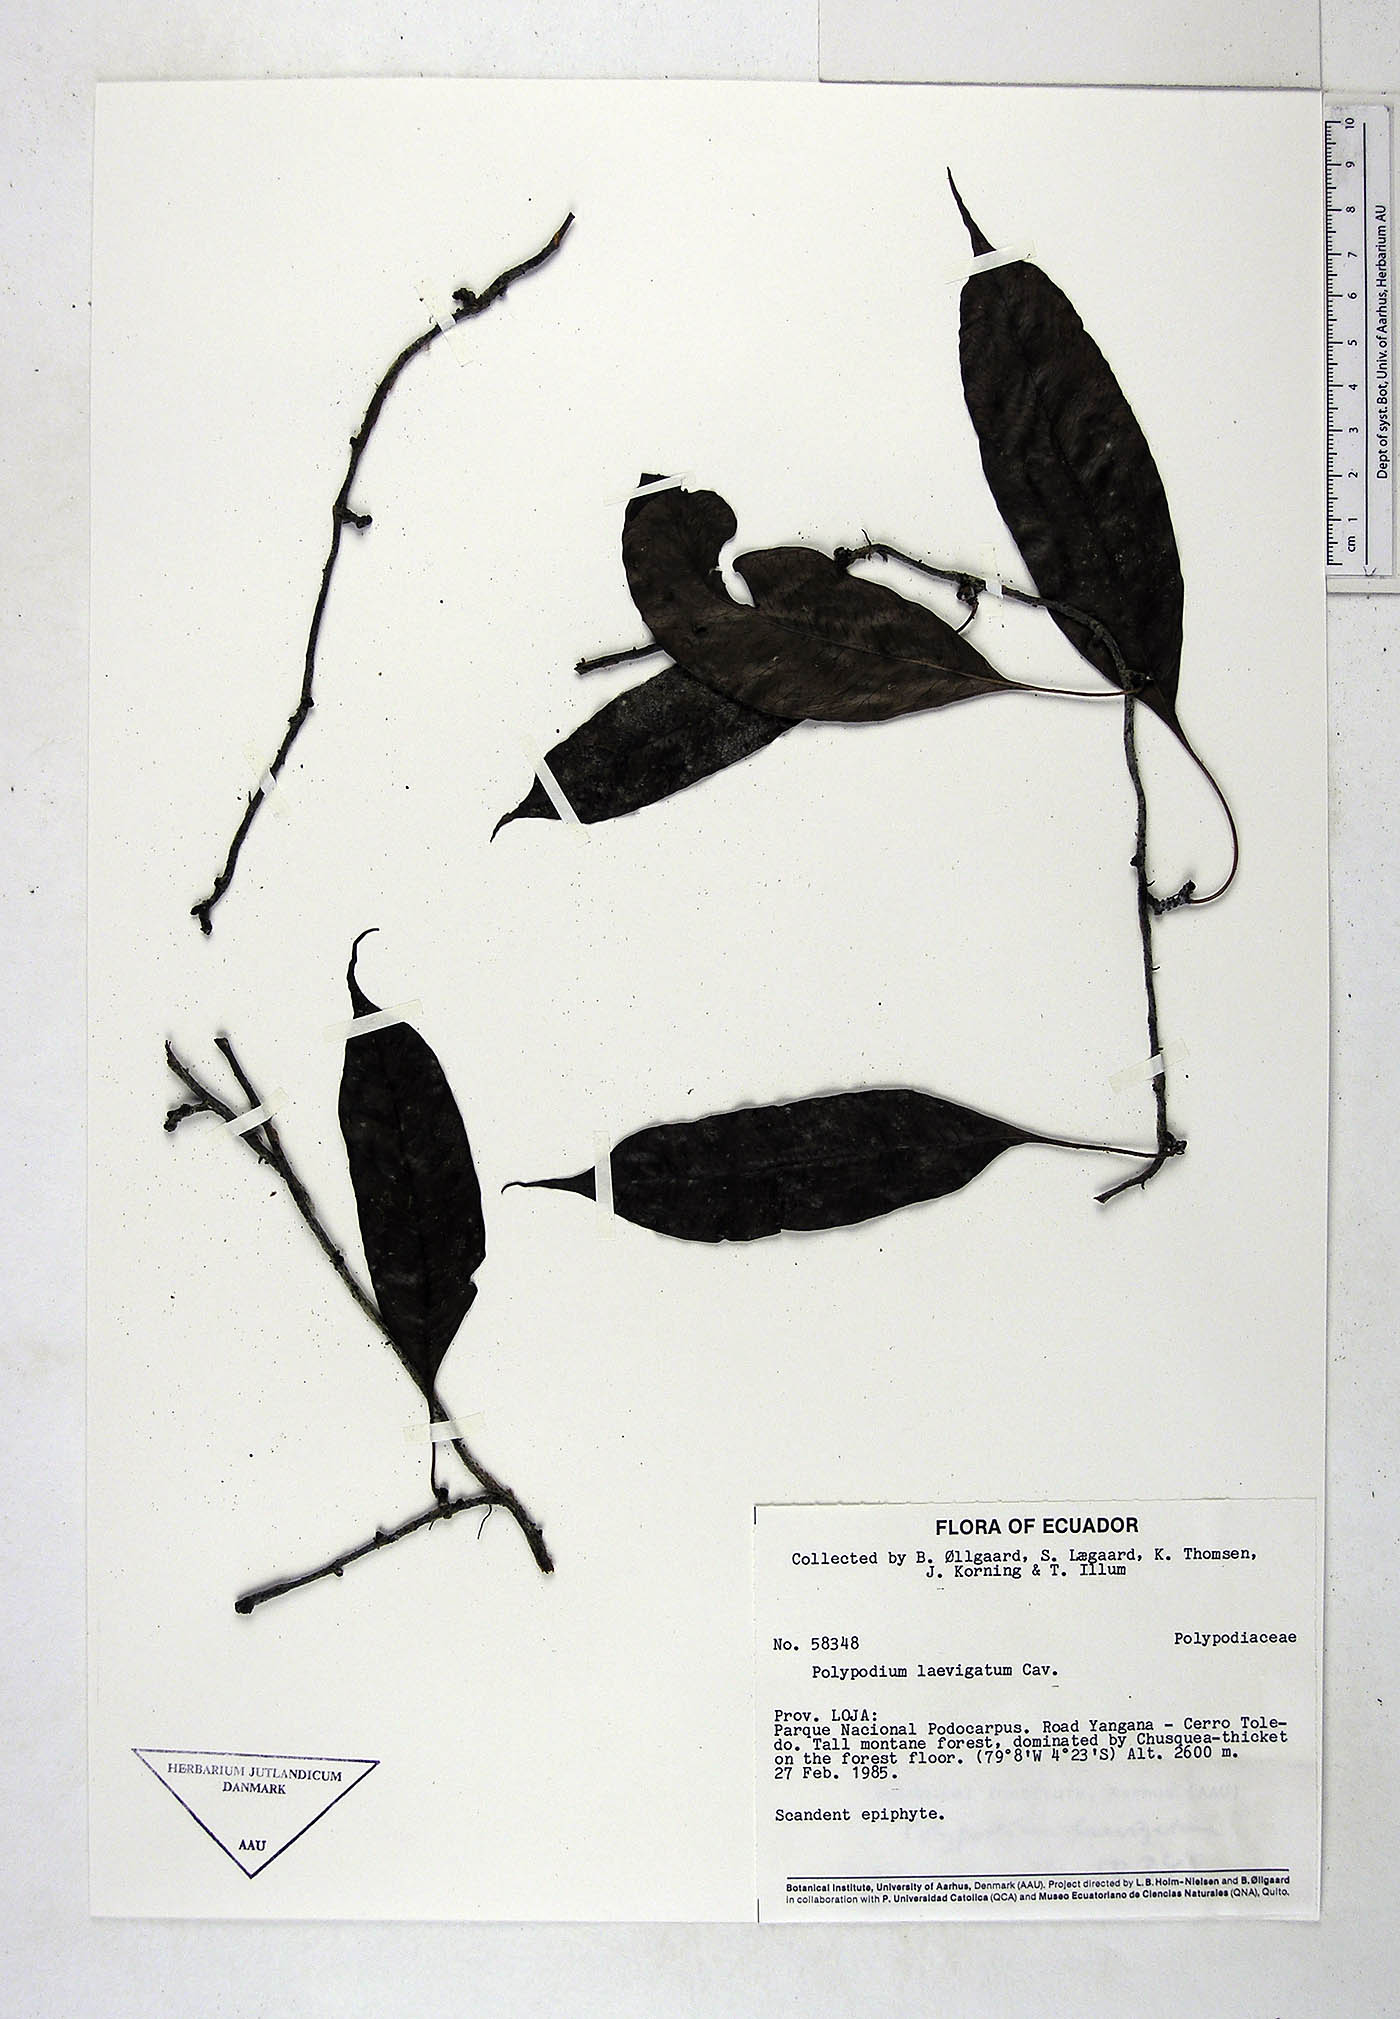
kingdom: Plantae
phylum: Tracheophyta
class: Polypodiopsida
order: Polypodiales
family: Polypodiaceae
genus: Serpocaulon
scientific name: Serpocaulon laevigatum
